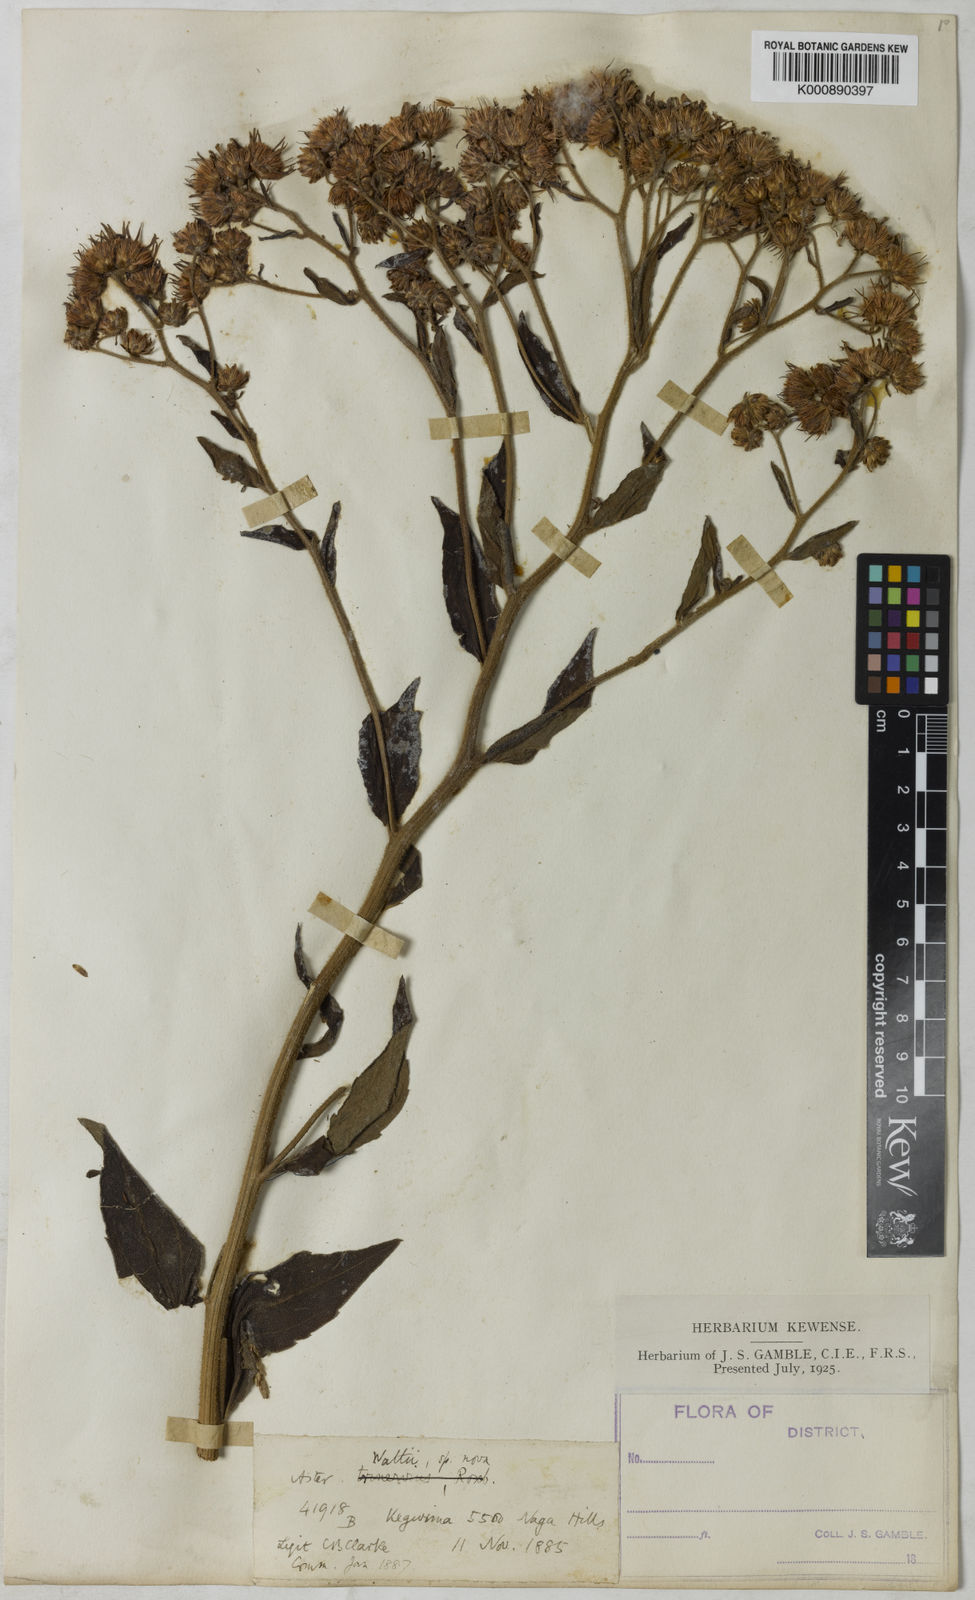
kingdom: Plantae
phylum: Tracheophyta
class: Magnoliopsida
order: Asterales
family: Asteraceae
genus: Aster
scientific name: Aster
